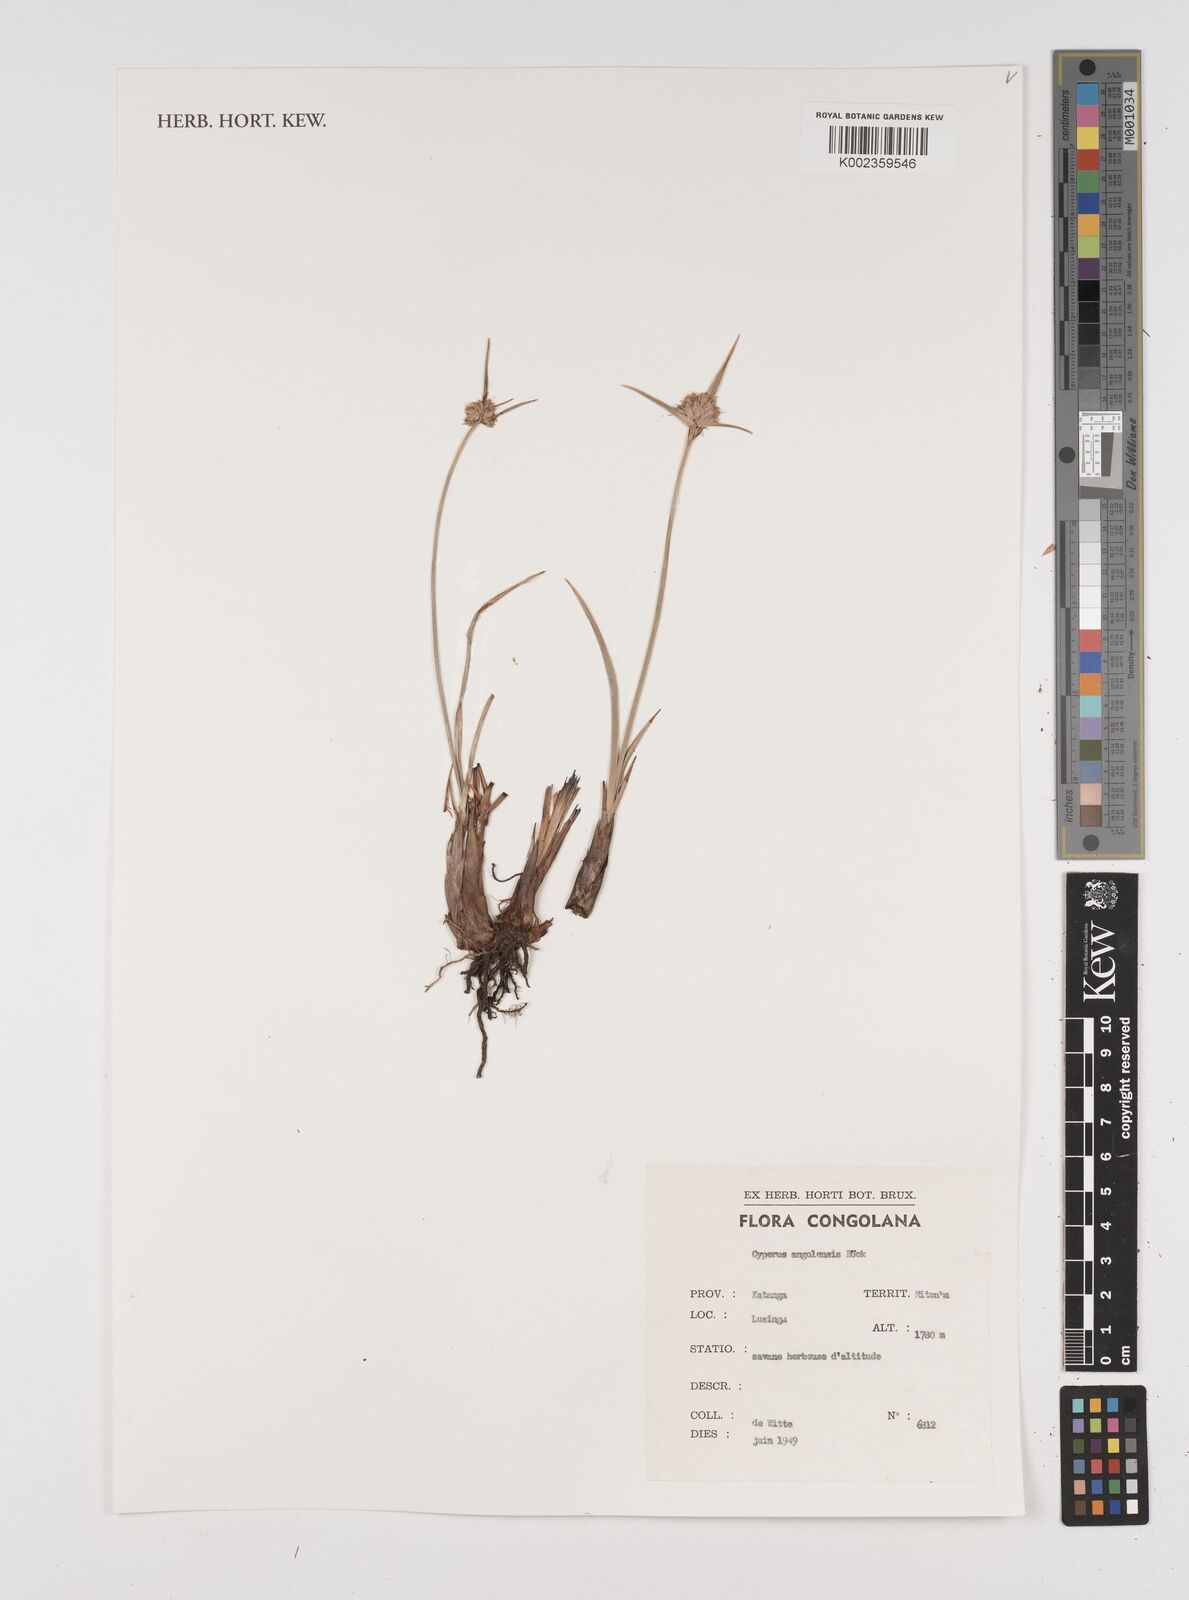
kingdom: Plantae
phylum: Tracheophyta
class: Liliopsida
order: Poales
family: Cyperaceae
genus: Cyperus
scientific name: Cyperus angolensis
